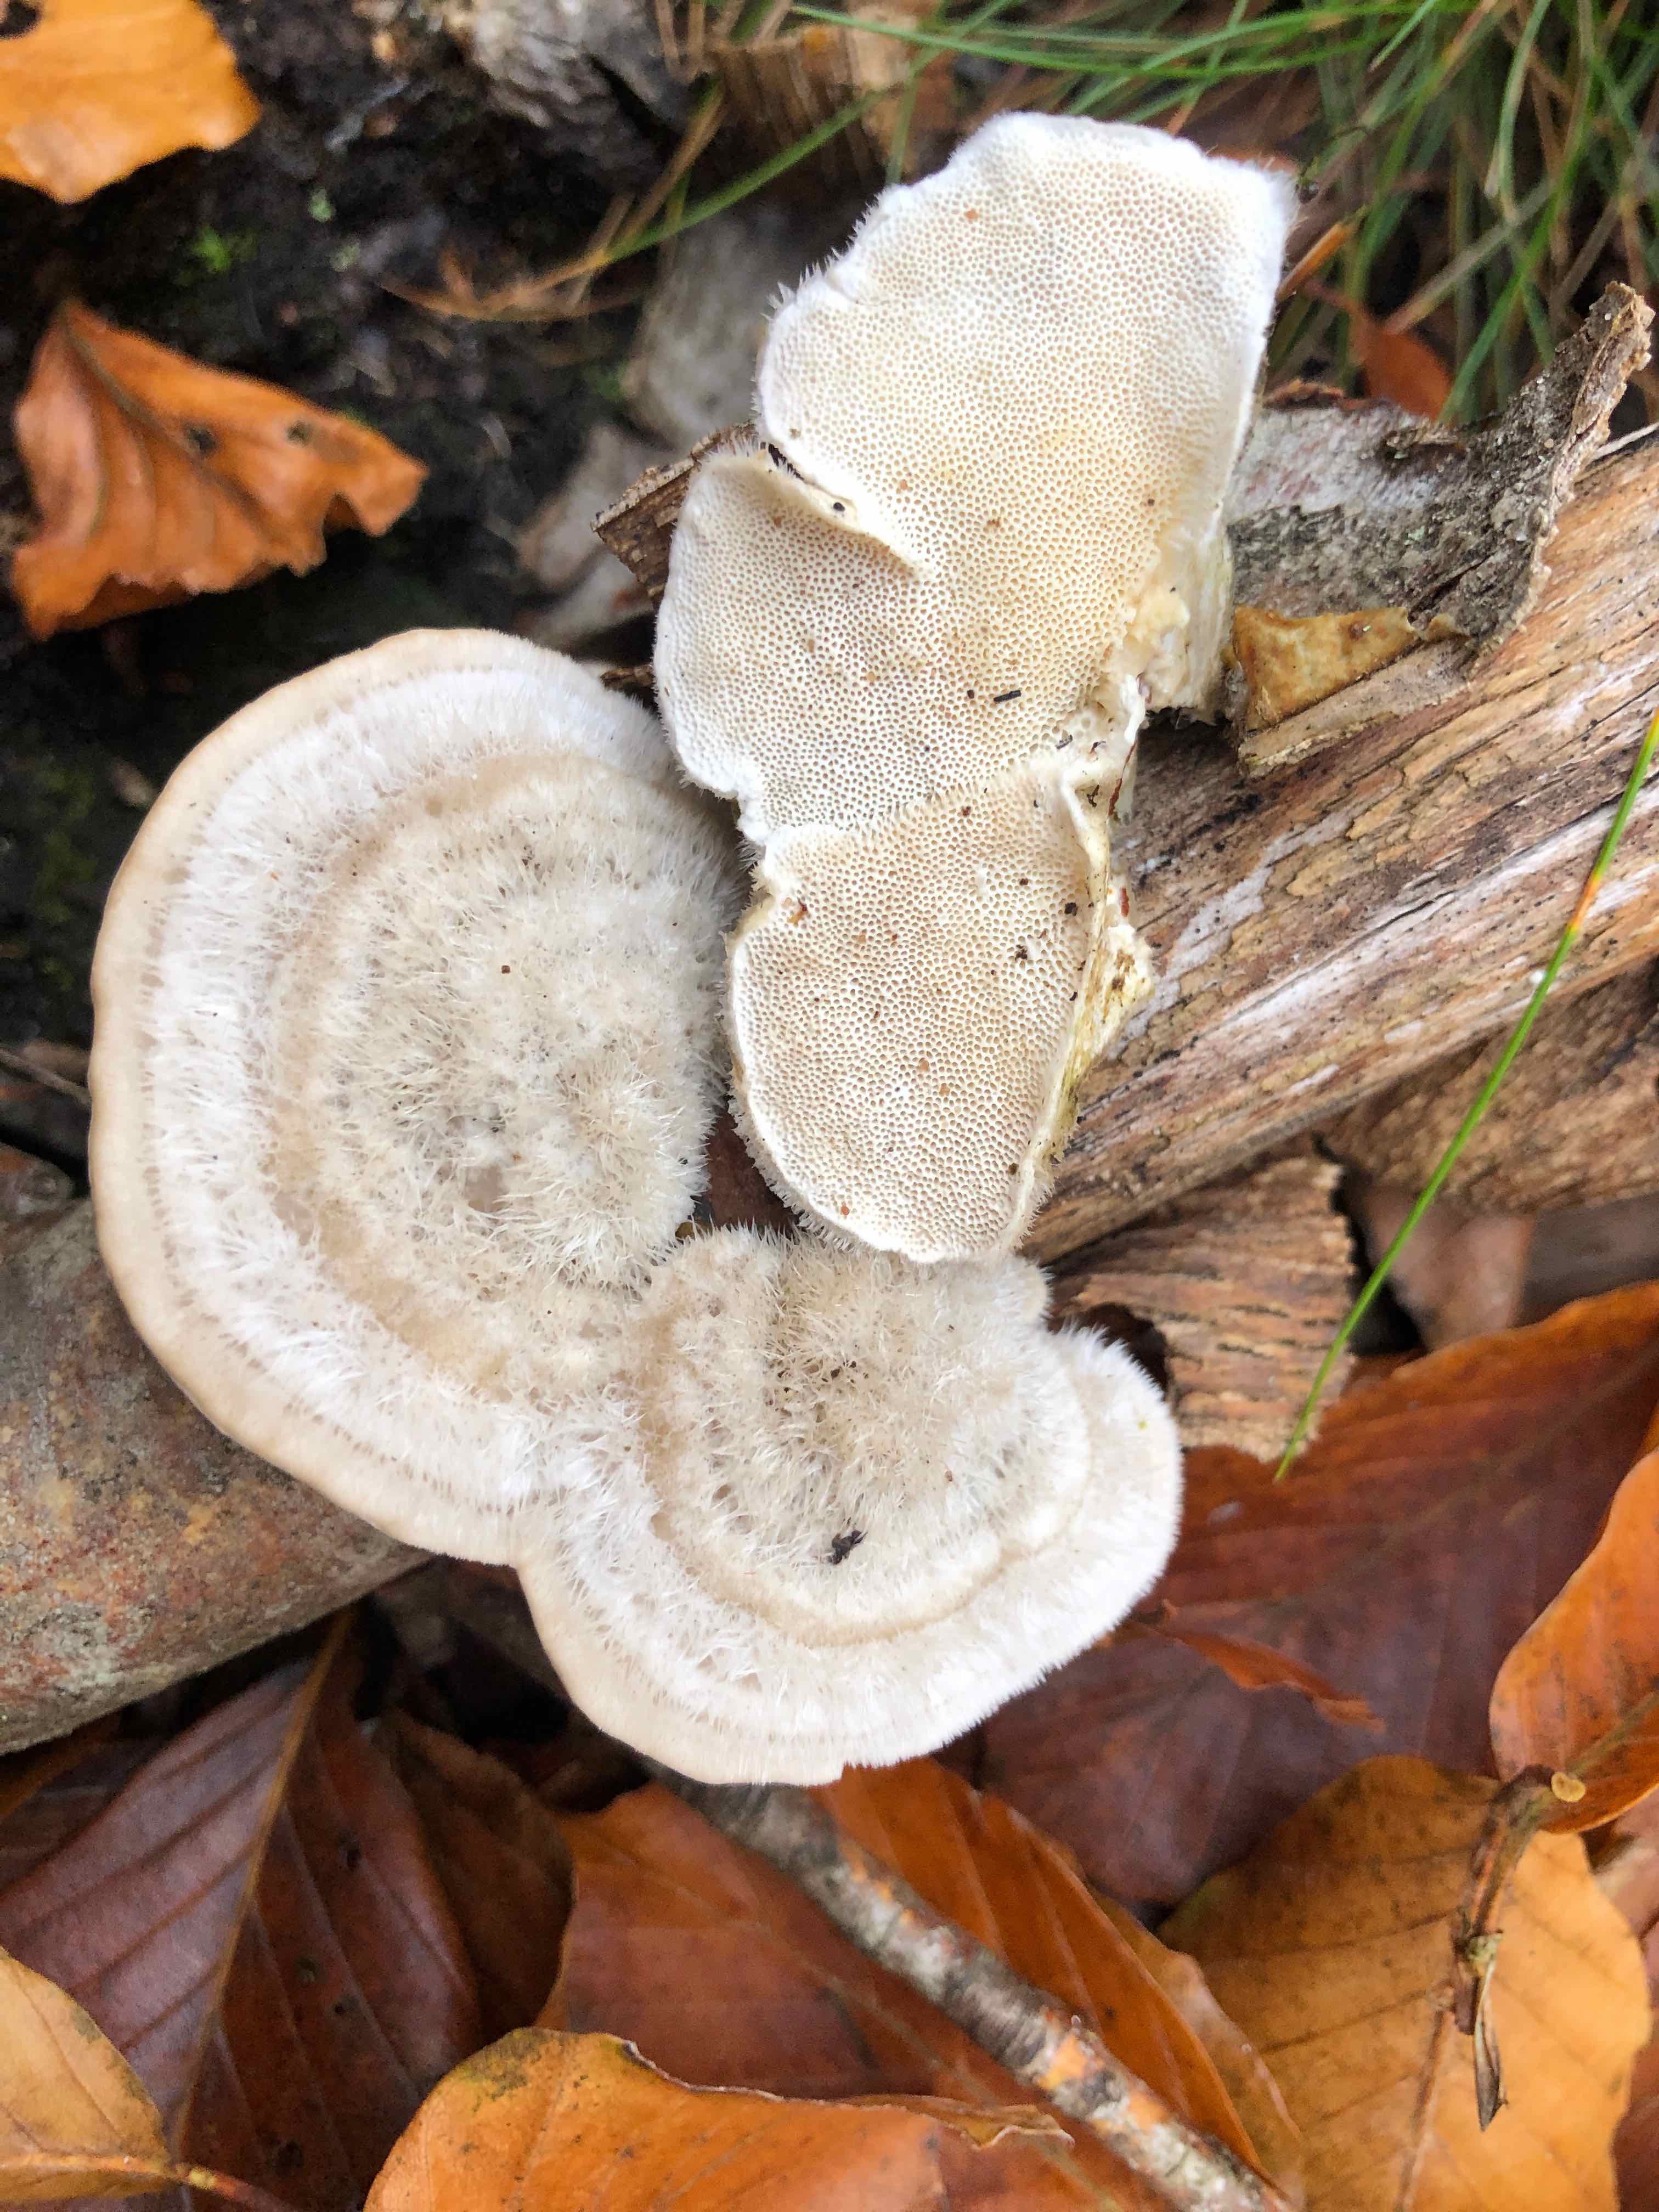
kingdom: Fungi
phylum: Basidiomycota
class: Agaricomycetes
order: Polyporales
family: Polyporaceae
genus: Trametes
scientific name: Trametes hirsuta
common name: håret læderporesvamp
